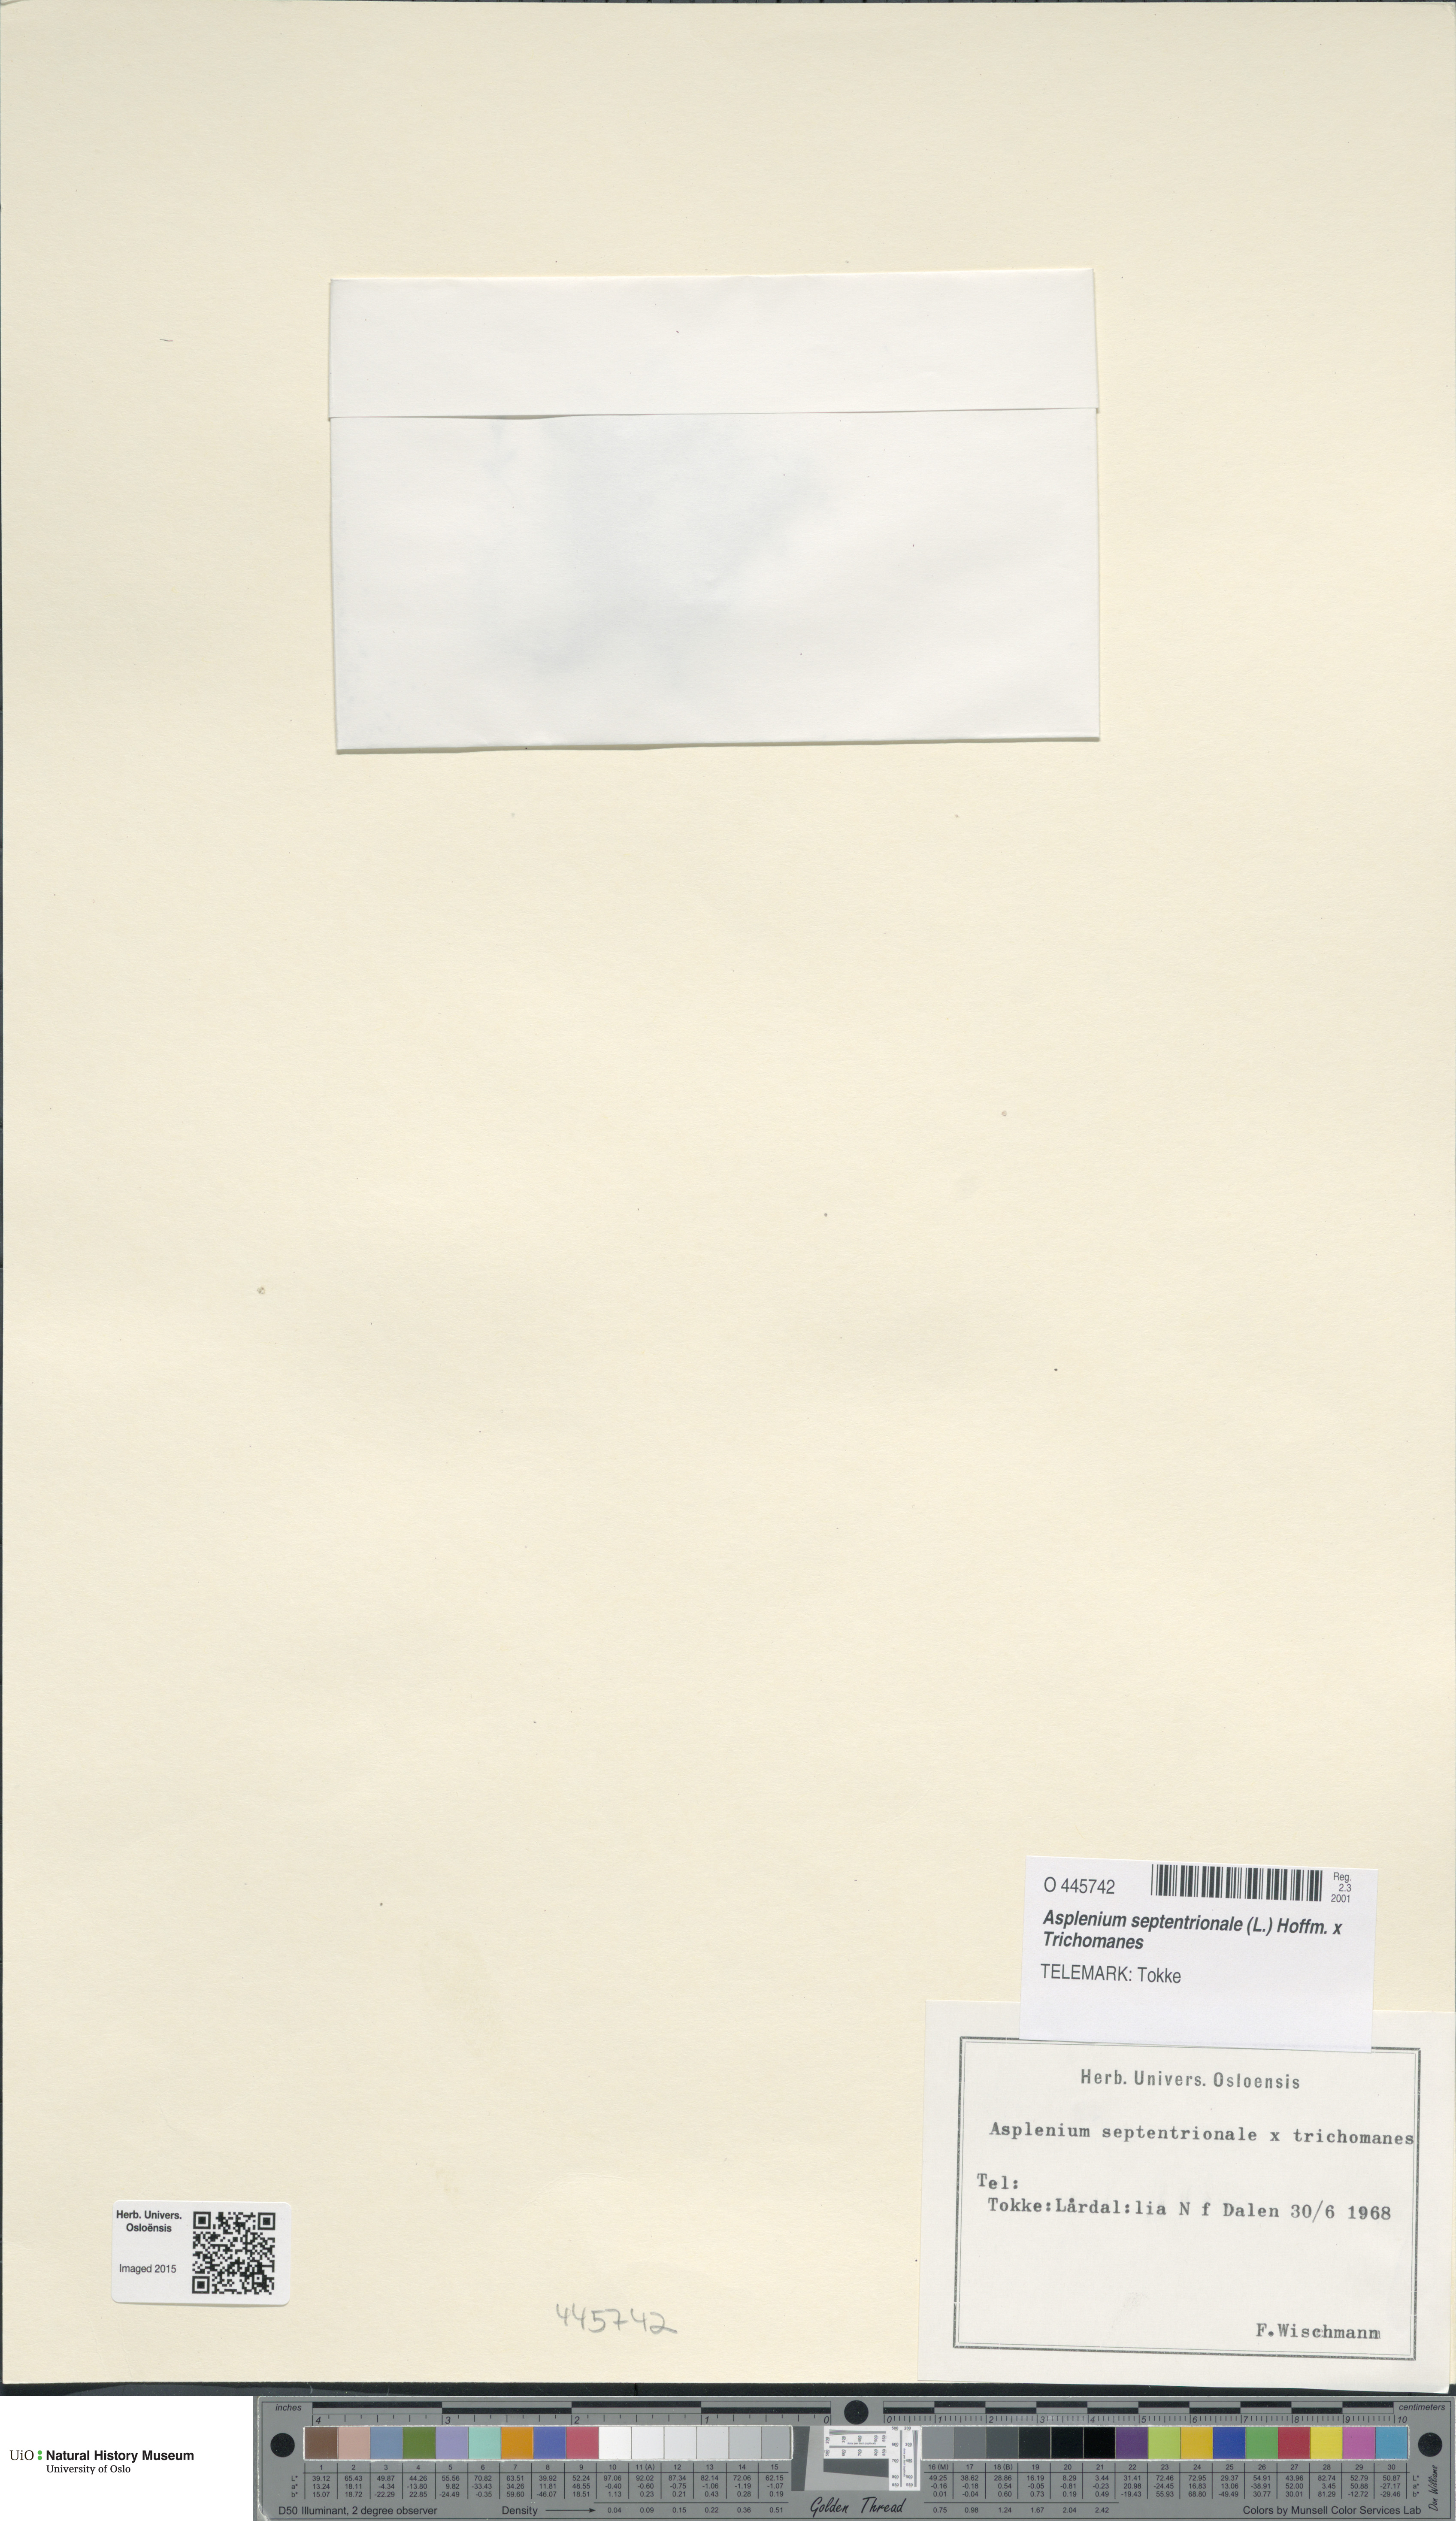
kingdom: Plantae
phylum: Tracheophyta
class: Polypodiopsida
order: Polypodiales
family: Aspleniaceae
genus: Asplenium
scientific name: Asplenium
